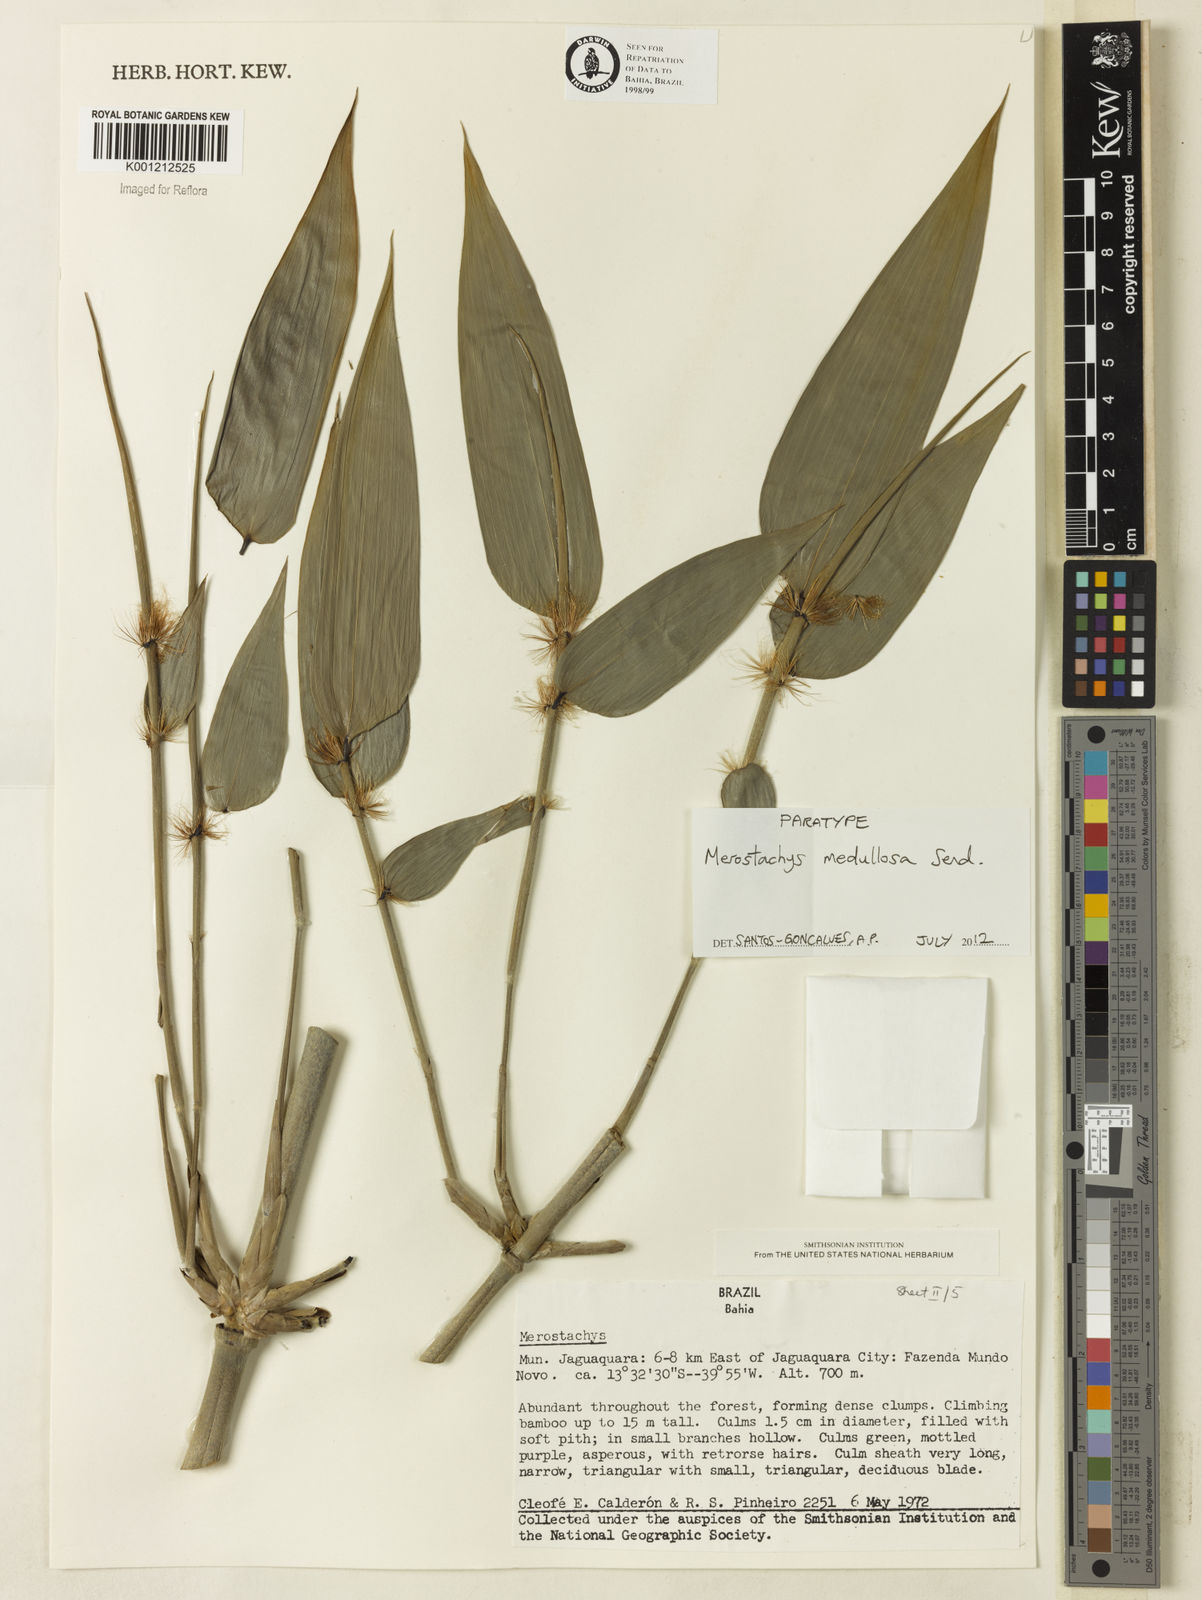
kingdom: Plantae
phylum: Tracheophyta
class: Liliopsida
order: Poales
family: Poaceae
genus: Merostachys
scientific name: Merostachys medullosa
